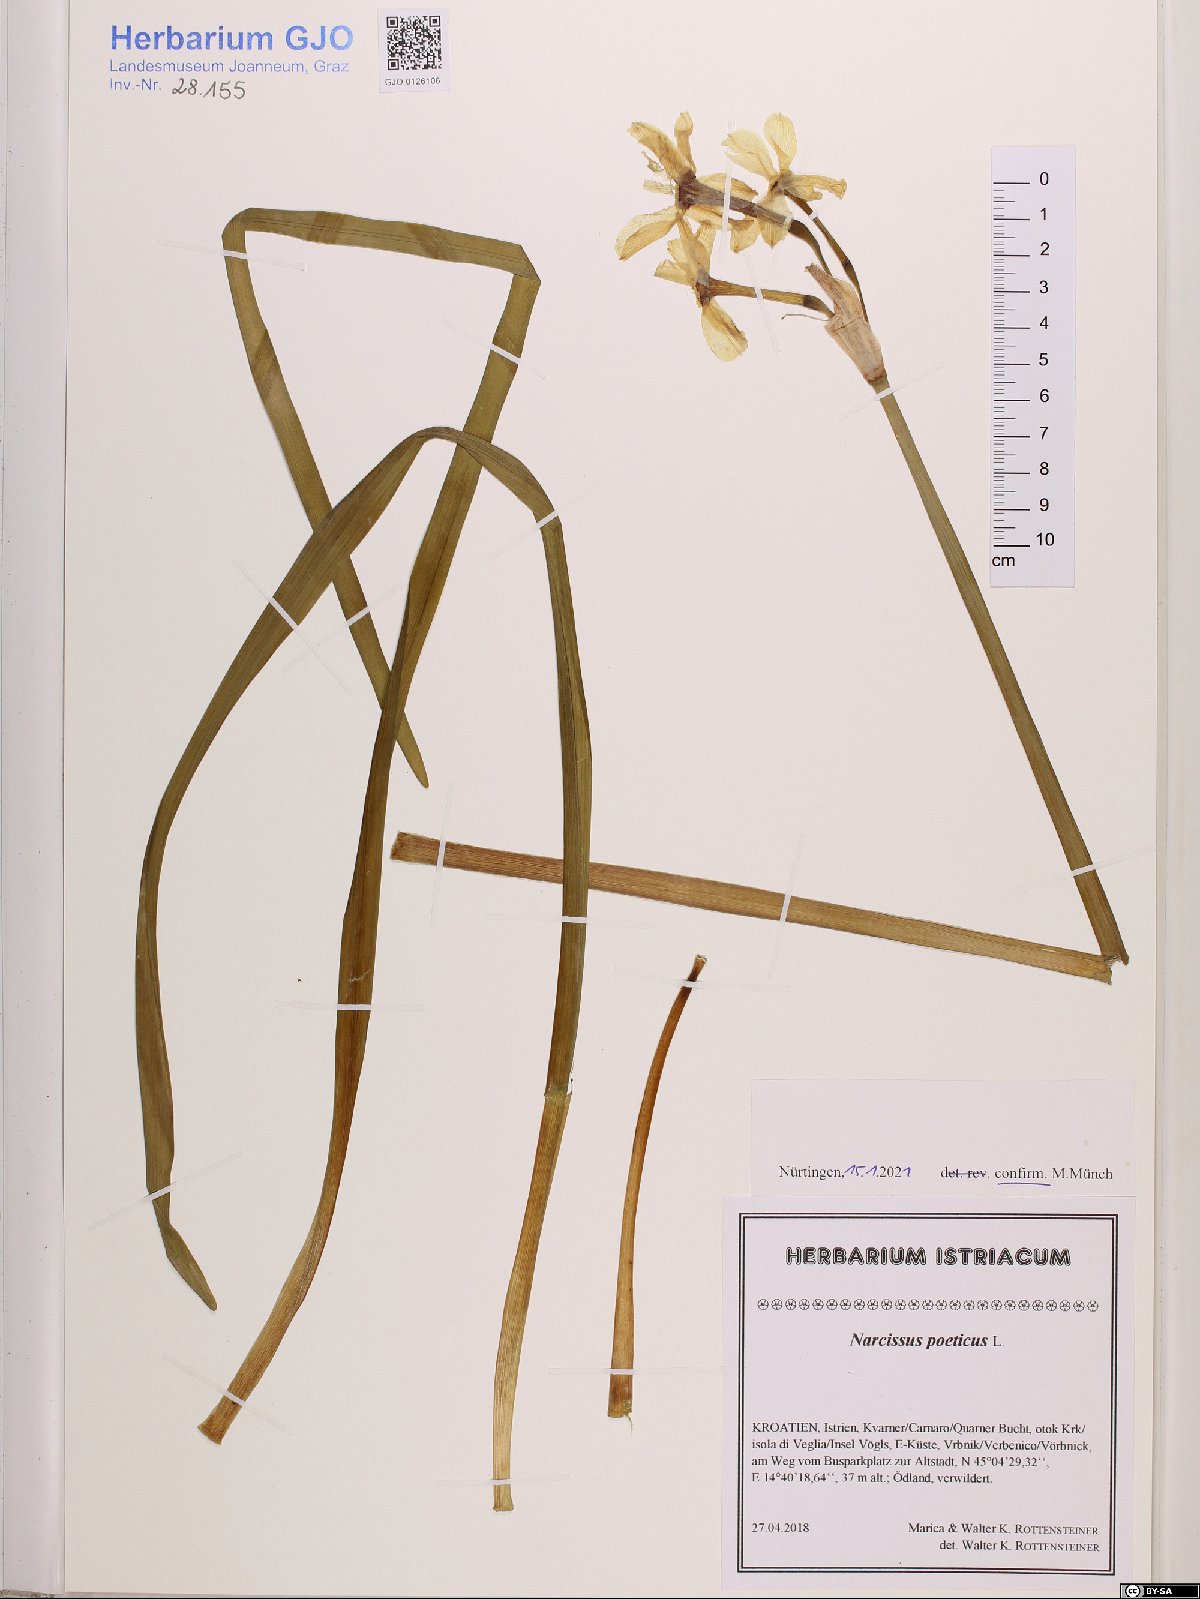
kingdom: Plantae
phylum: Tracheophyta
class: Liliopsida
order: Asparagales
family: Amaryllidaceae
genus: Narcissus
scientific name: Narcissus poeticus
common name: Pheasant's-eye daffodil
